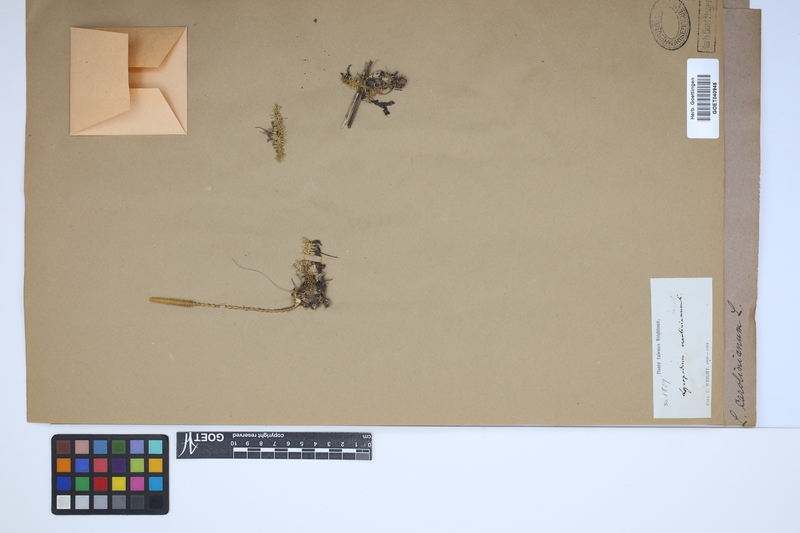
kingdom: Plantae
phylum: Tracheophyta
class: Lycopodiopsida
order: Lycopodiales
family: Lycopodiaceae
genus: Brownseya
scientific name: Brownseya serpentina
